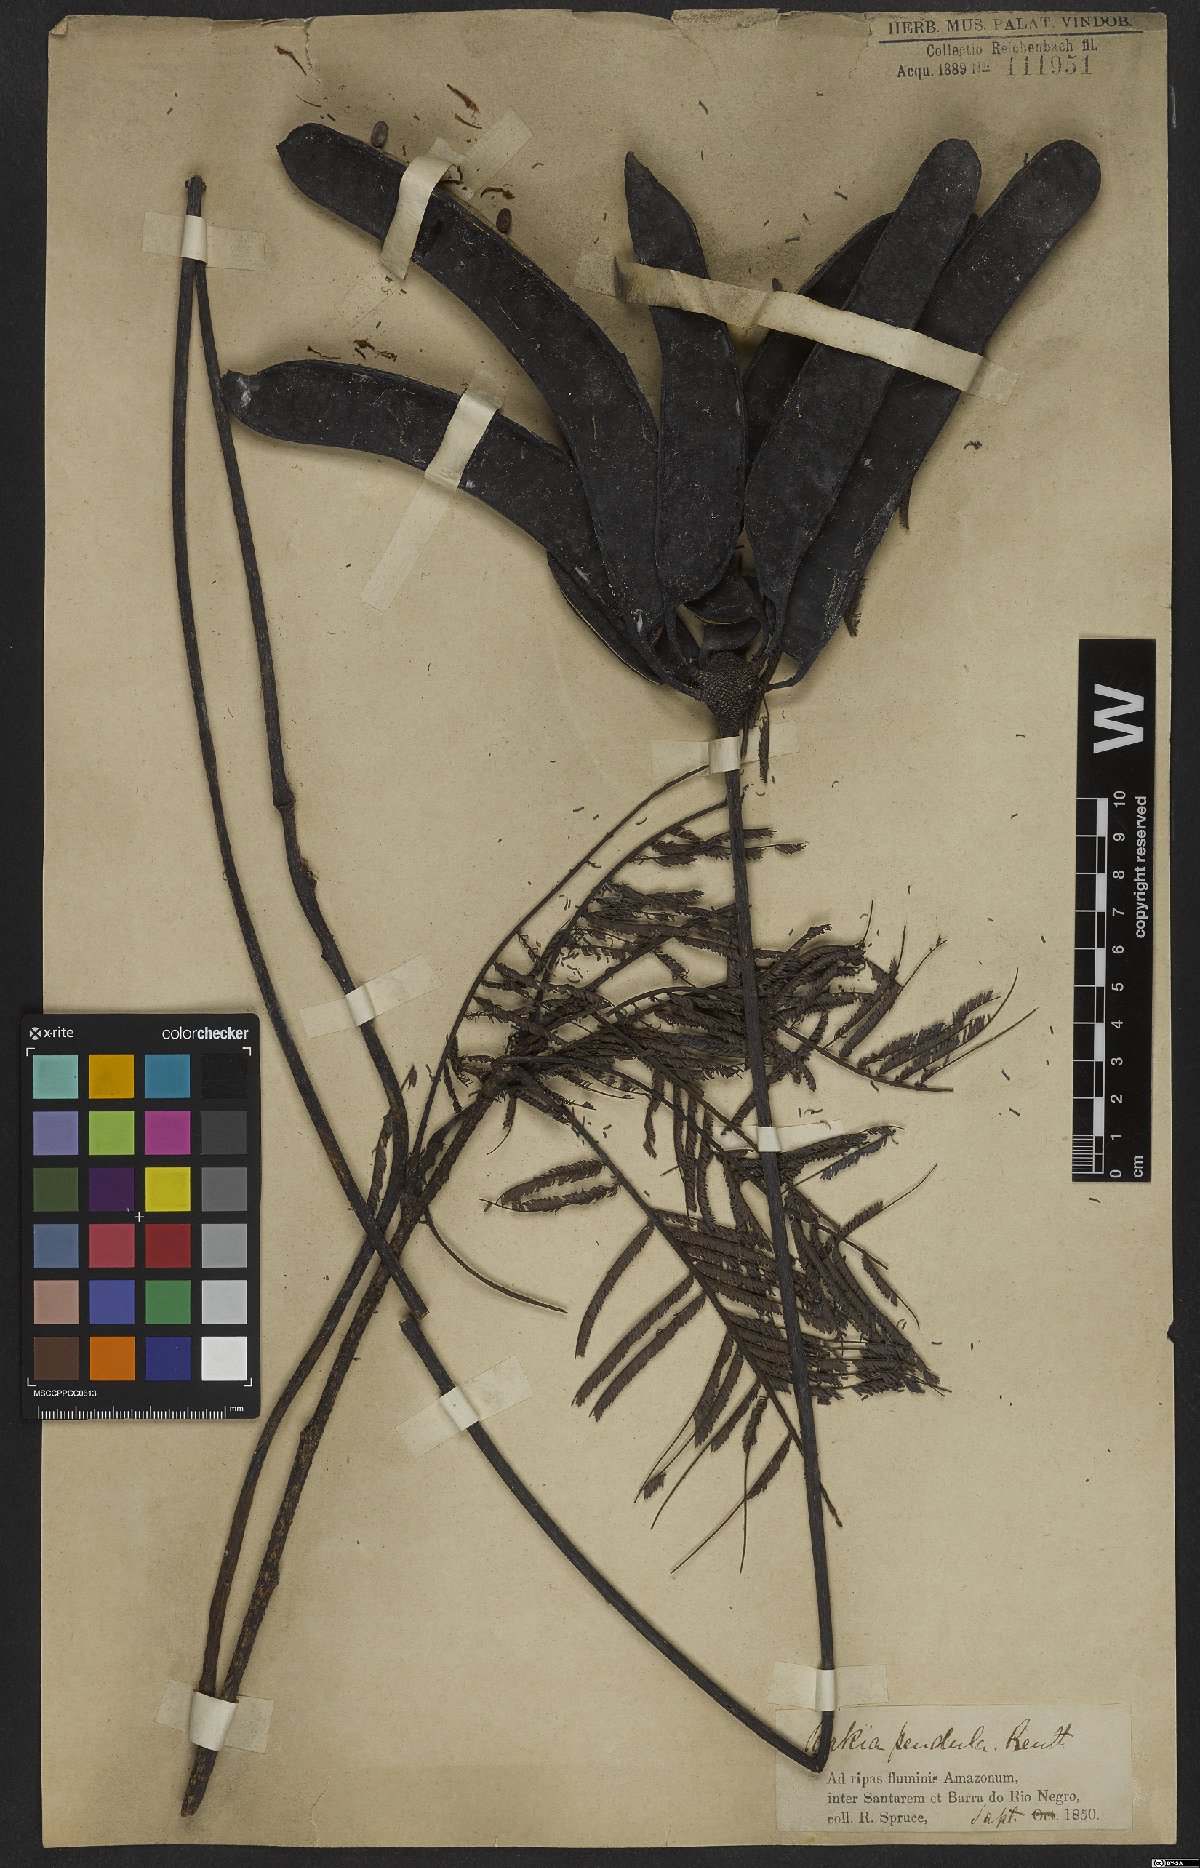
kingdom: Plantae
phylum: Tracheophyta
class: Magnoliopsida
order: Fabales
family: Fabaceae
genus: Parkia
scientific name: Parkia pendula
